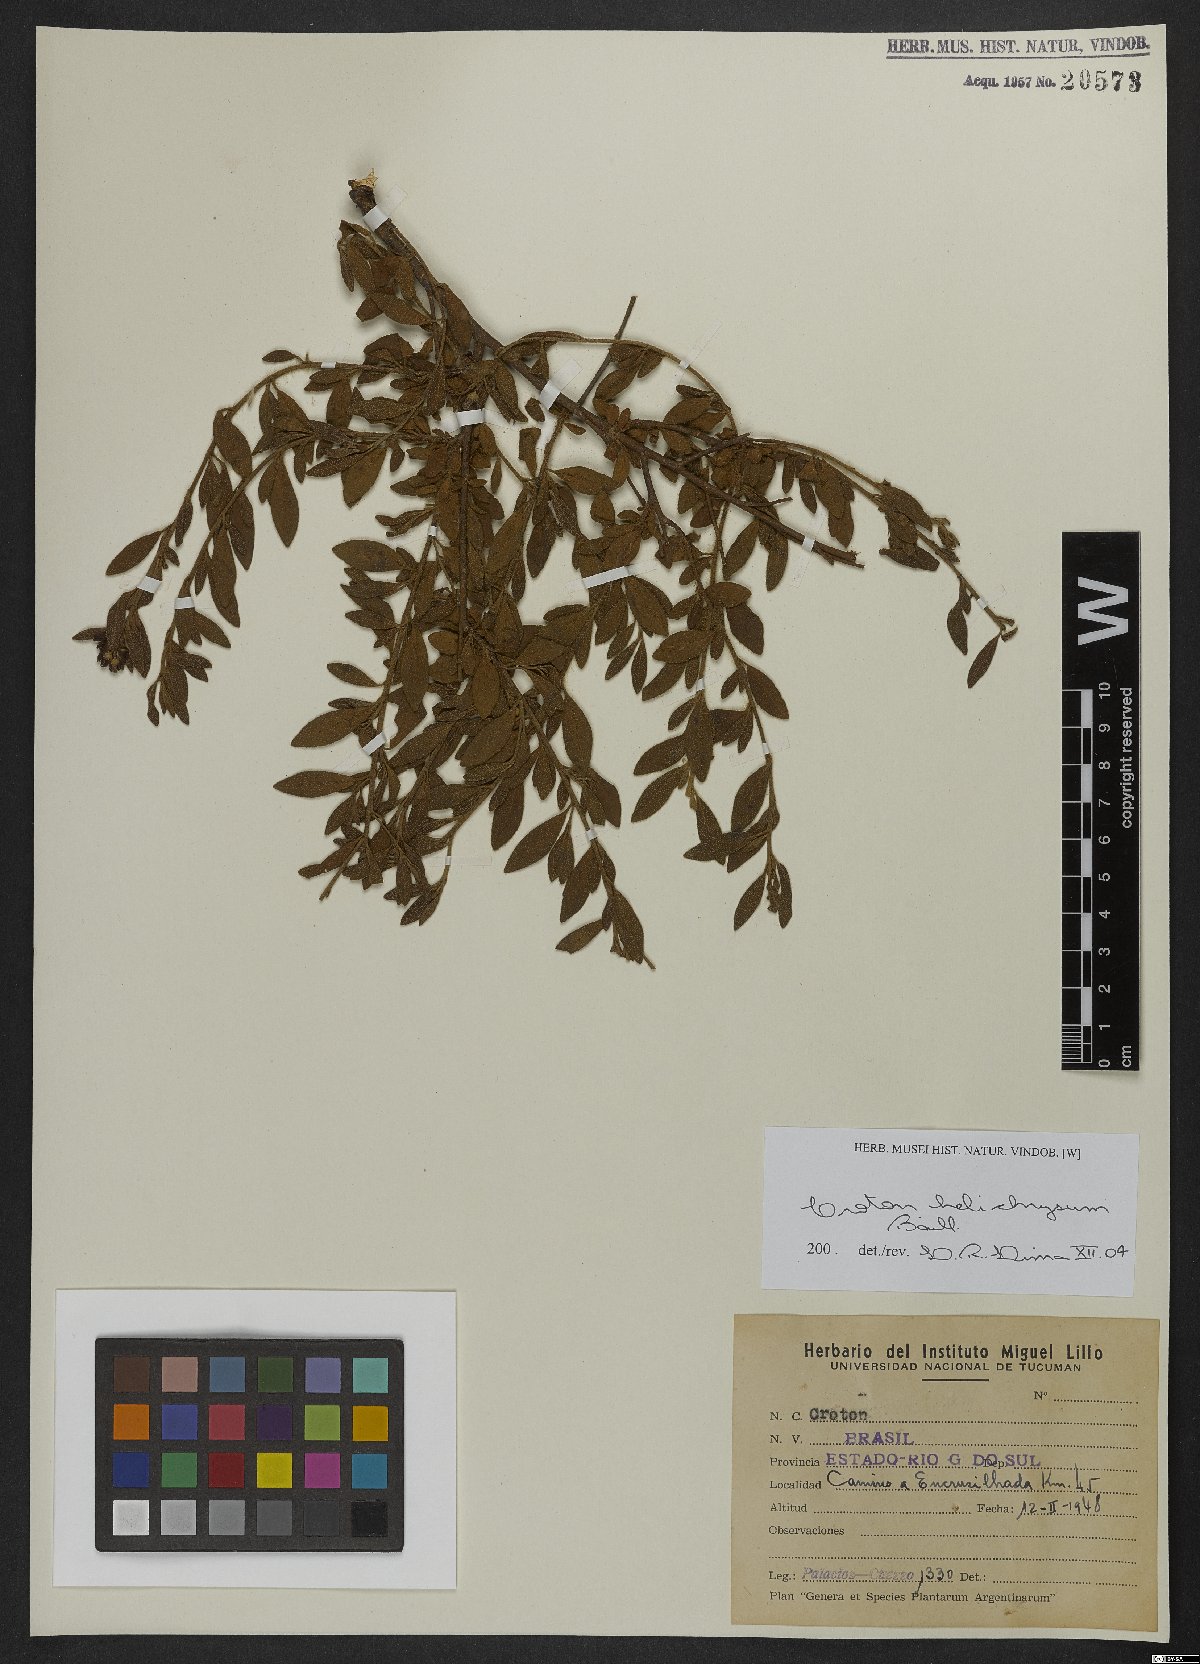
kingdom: Plantae
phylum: Tracheophyta
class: Magnoliopsida
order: Malpighiales
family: Euphorbiaceae
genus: Croton
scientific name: Croton helichrysum
